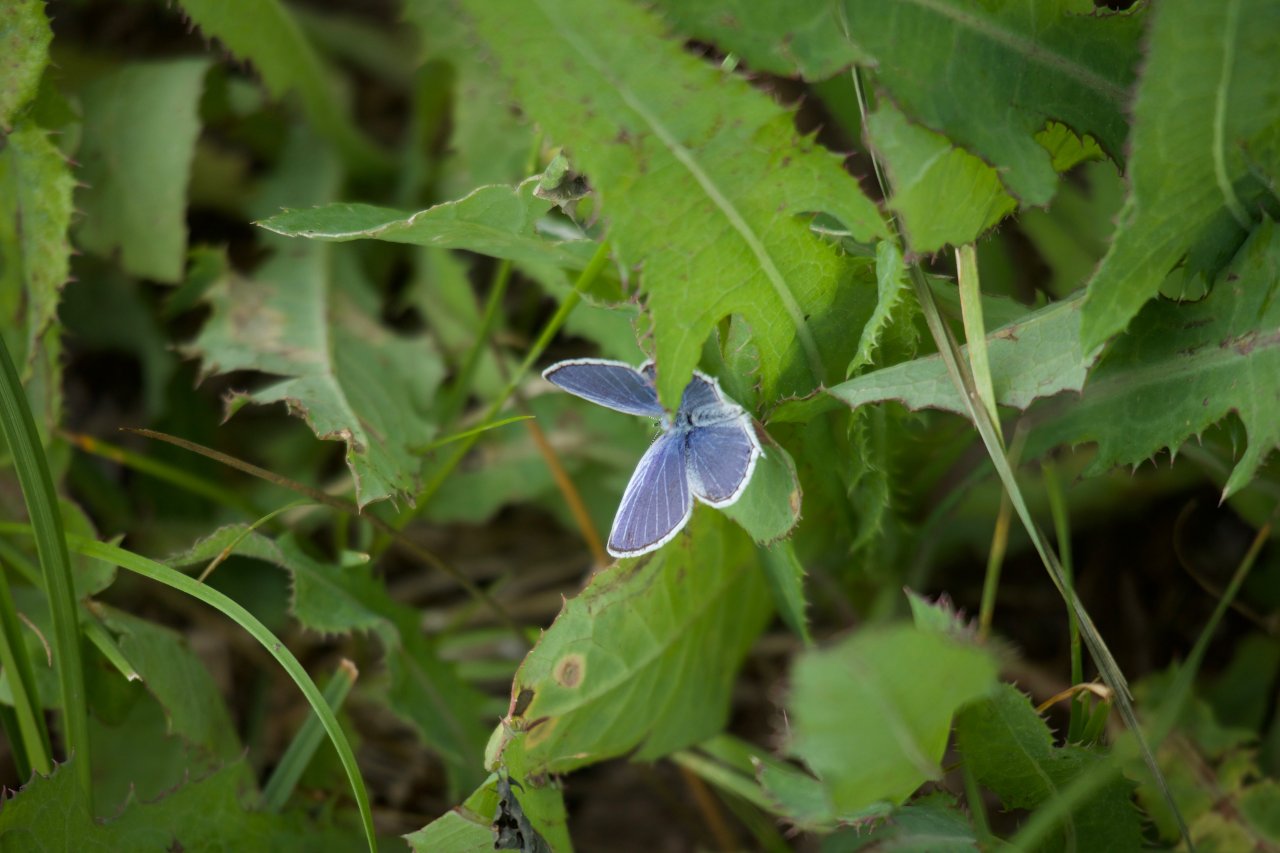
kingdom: Animalia
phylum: Arthropoda
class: Insecta
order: Lepidoptera
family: Lycaenidae
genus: Elkalyce
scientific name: Elkalyce amyntula
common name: Western Tailed-Blue
